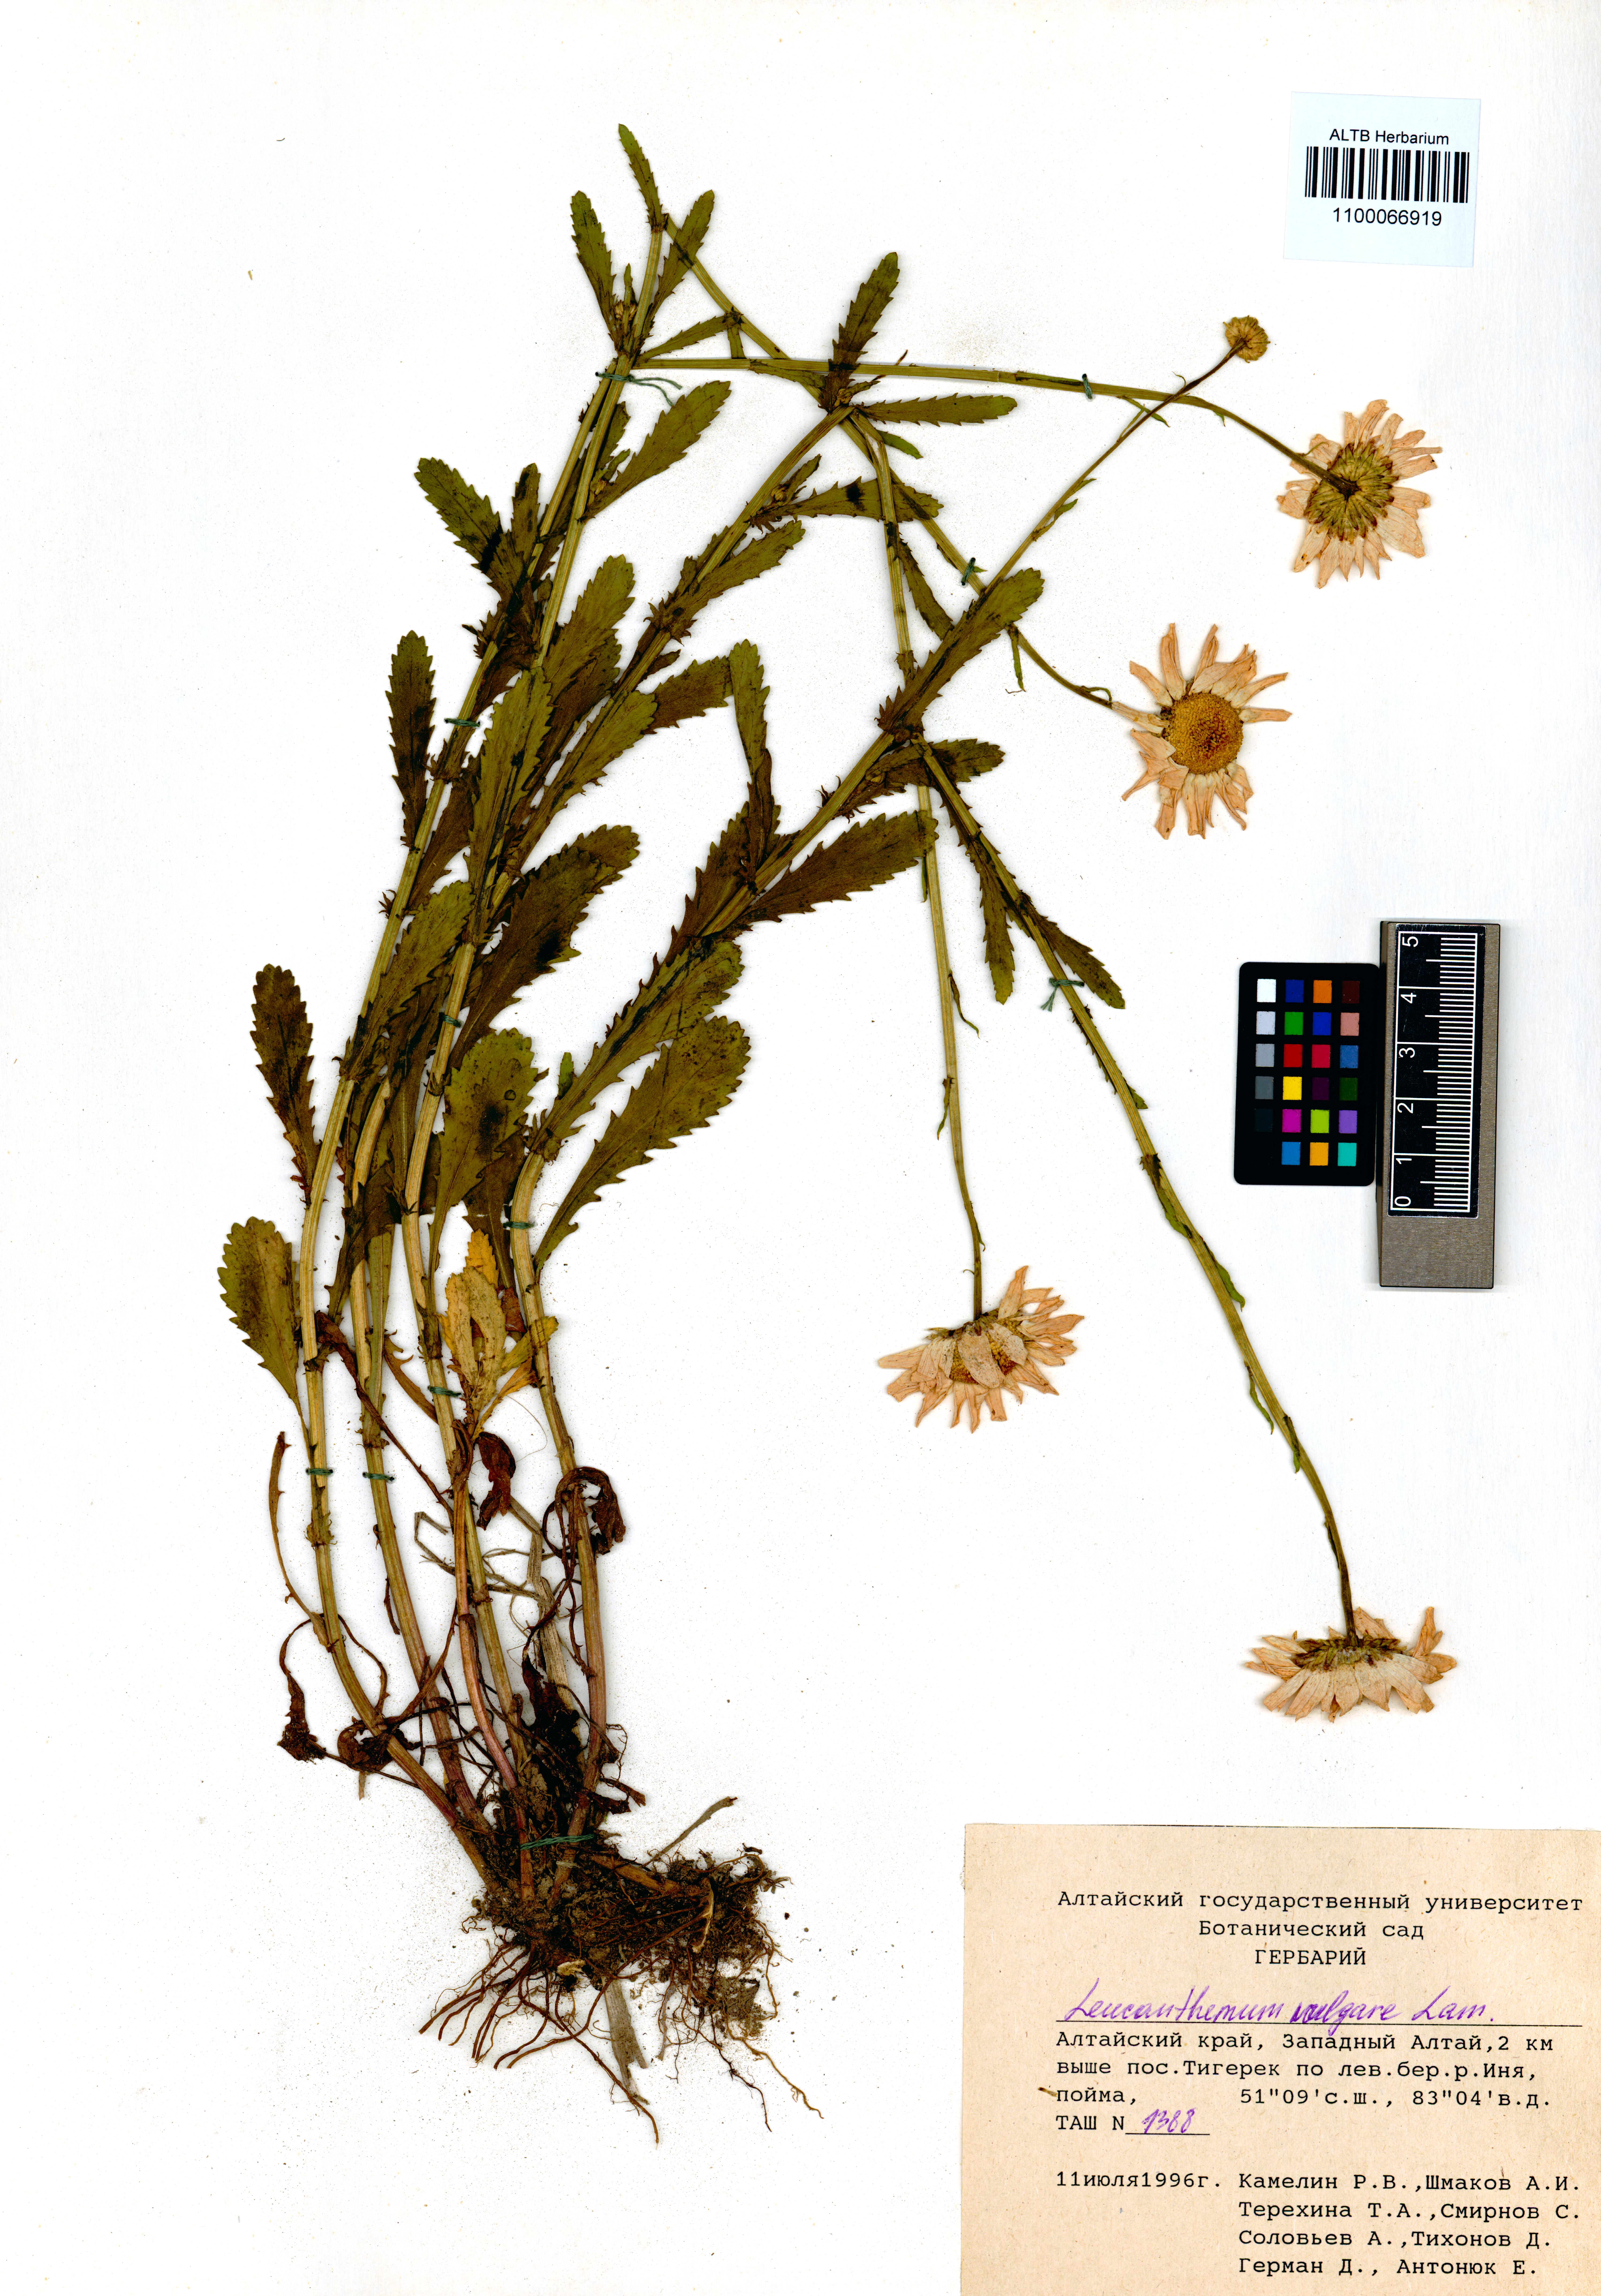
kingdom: Plantae
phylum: Tracheophyta
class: Magnoliopsida
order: Asterales
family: Asteraceae
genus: Leucanthemum
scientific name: Leucanthemum vulgare
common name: Oxeye daisy
